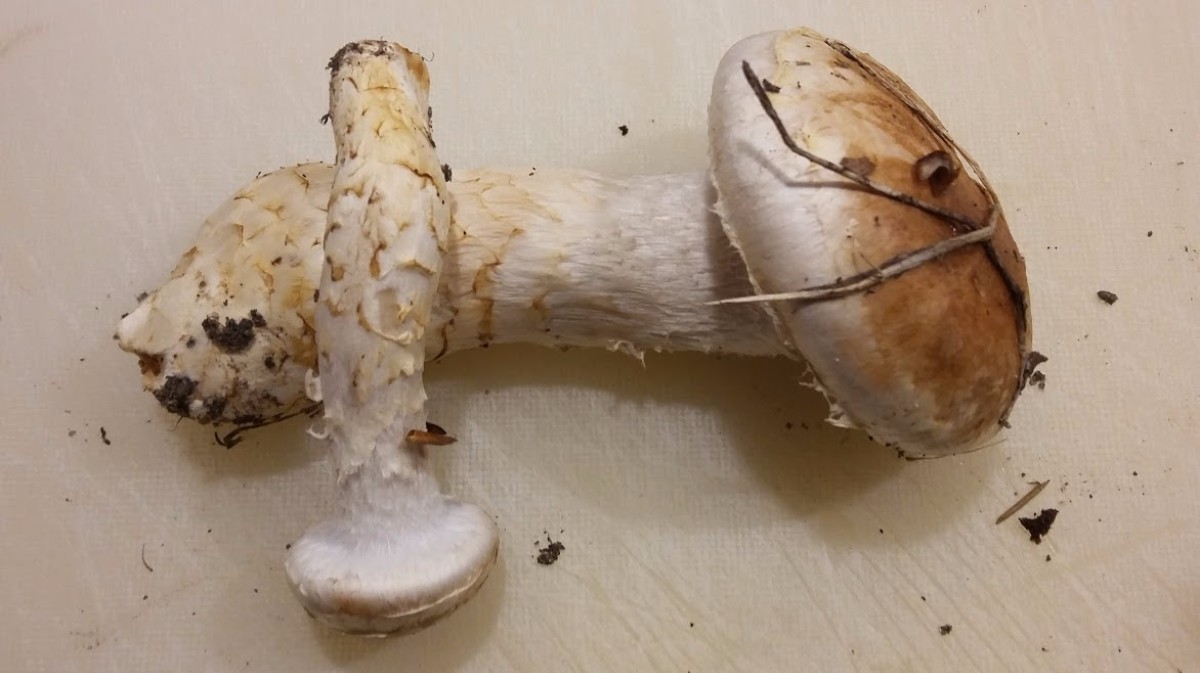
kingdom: Fungi
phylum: Basidiomycota
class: Agaricomycetes
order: Agaricales
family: Cortinariaceae
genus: Phlegmacium
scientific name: Phlegmacium vulpinum
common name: ringbæltet slørhat
